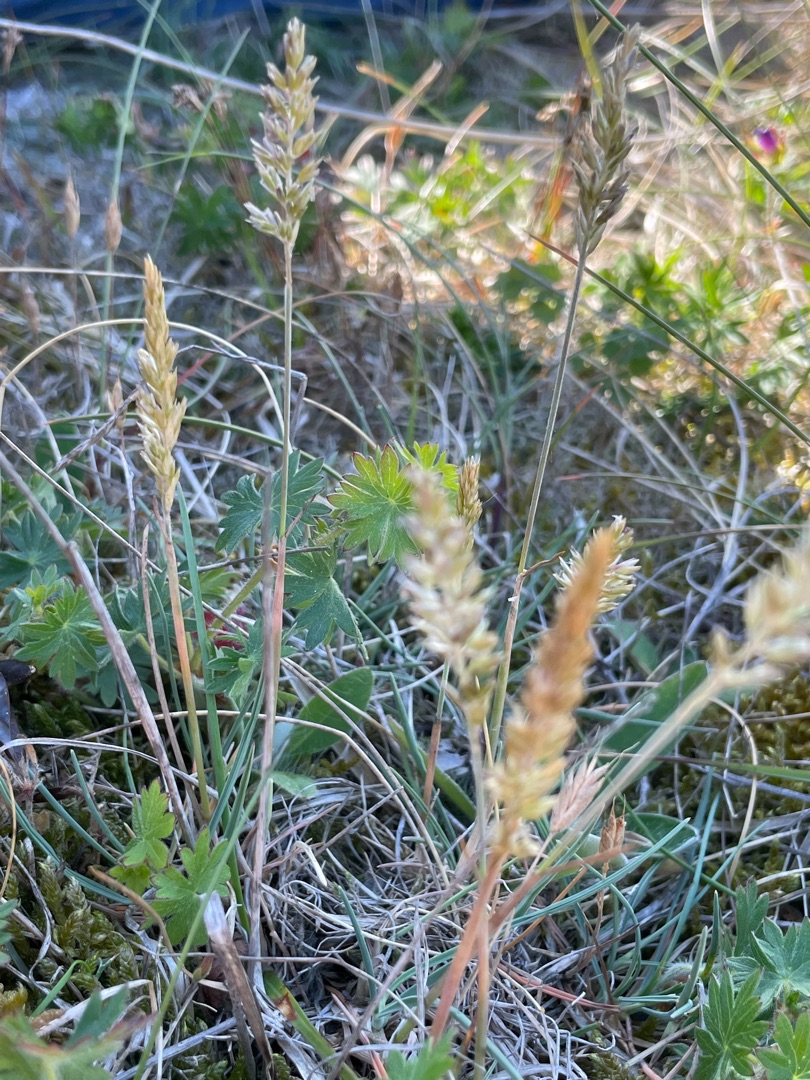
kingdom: Plantae
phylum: Tracheophyta
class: Liliopsida
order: Poales
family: Poaceae
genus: Koeleria
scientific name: Koeleria glauca
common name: Klit-kambunke
